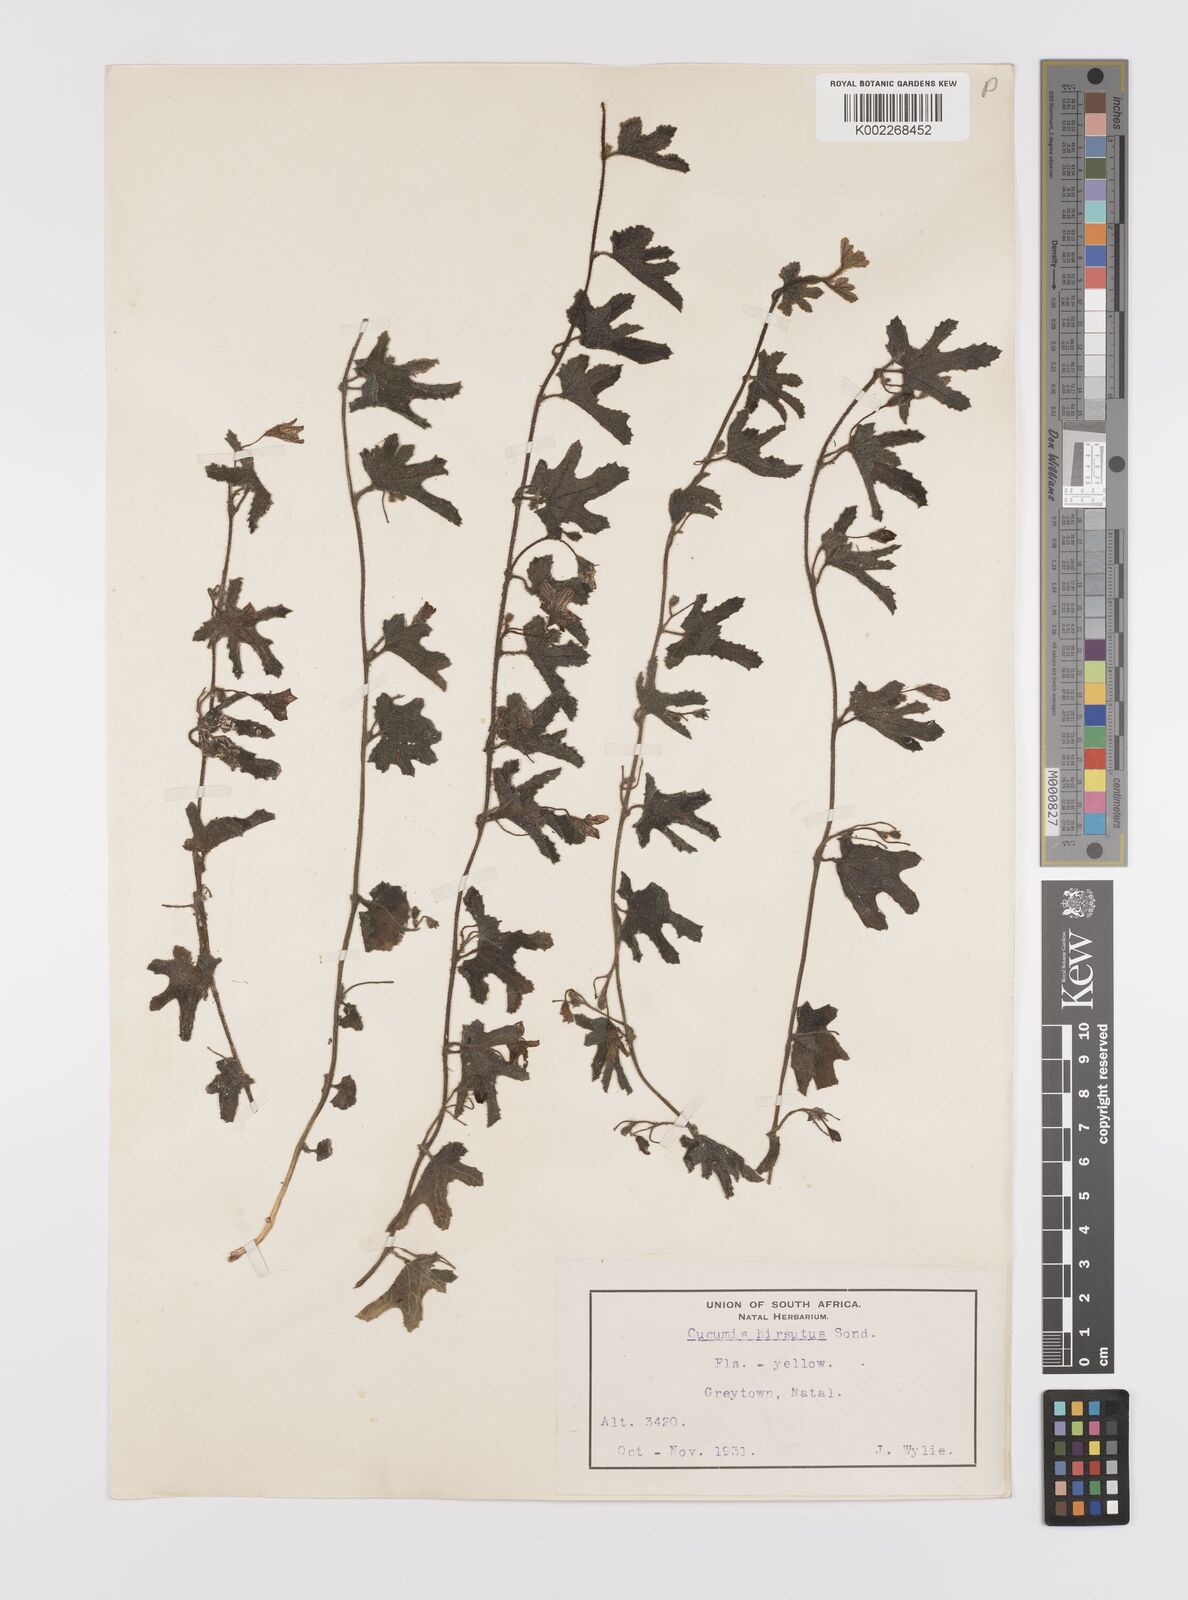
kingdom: Plantae
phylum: Tracheophyta
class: Magnoliopsida
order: Cucurbitales
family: Cucurbitaceae
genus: Cucumis
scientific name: Cucumis hirsutus
